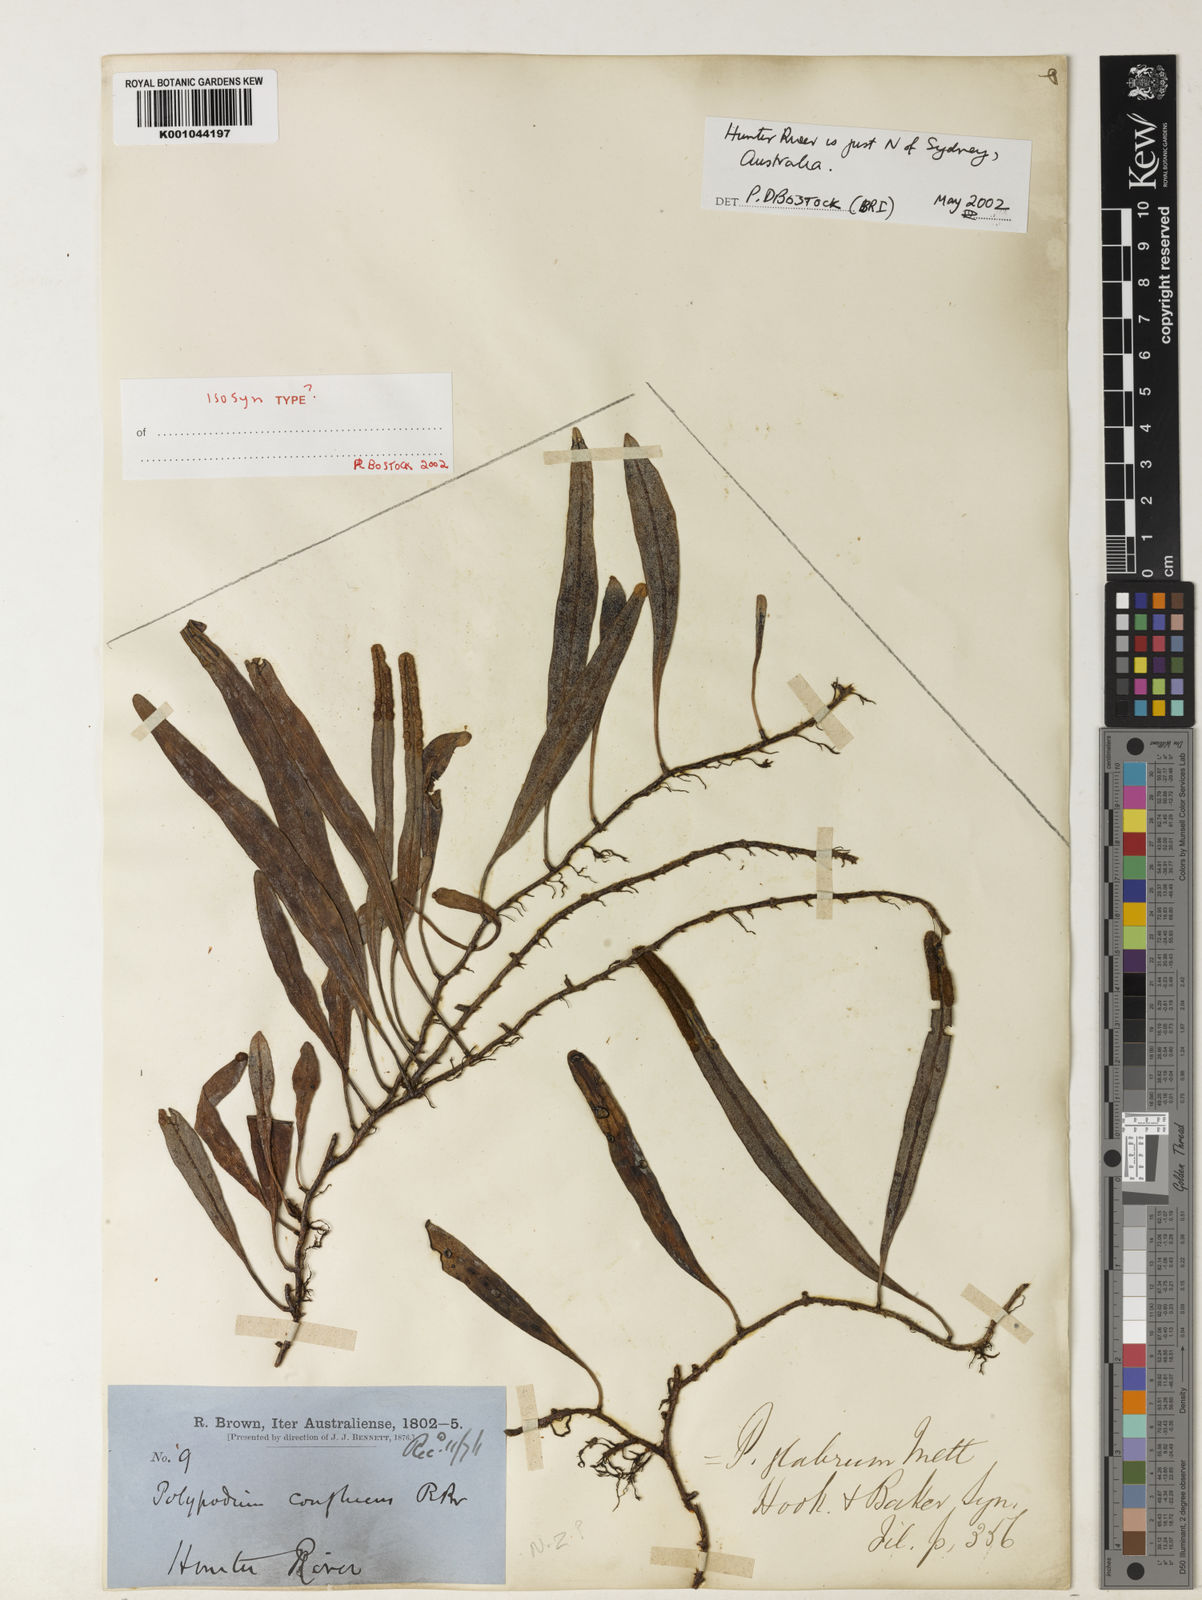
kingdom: Plantae
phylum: Tracheophyta
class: Polypodiopsida
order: Polypodiales
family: Polypodiaceae
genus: Pyrrosia
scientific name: Pyrrosia confluens
